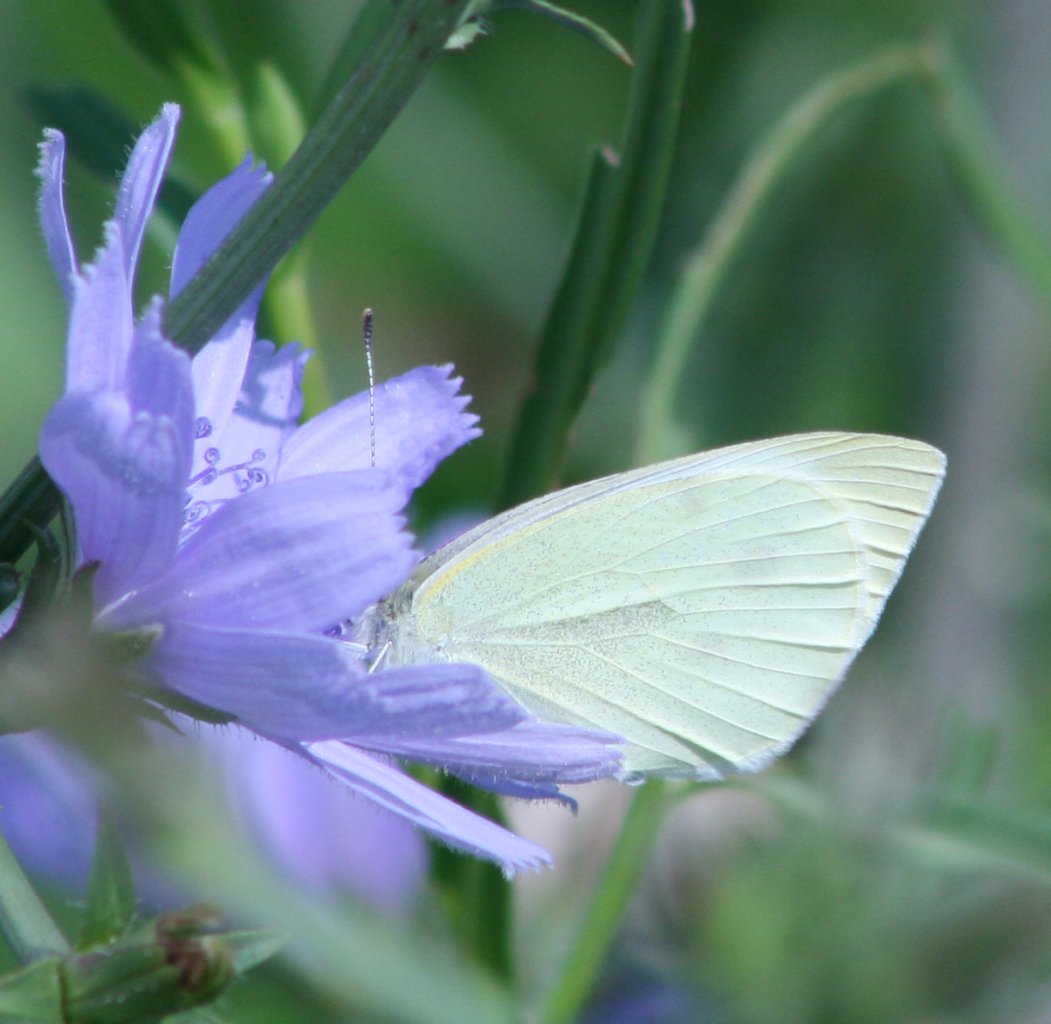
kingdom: Animalia
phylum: Arthropoda
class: Insecta
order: Lepidoptera
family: Pieridae
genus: Pieris
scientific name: Pieris rapae
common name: Cabbage White
